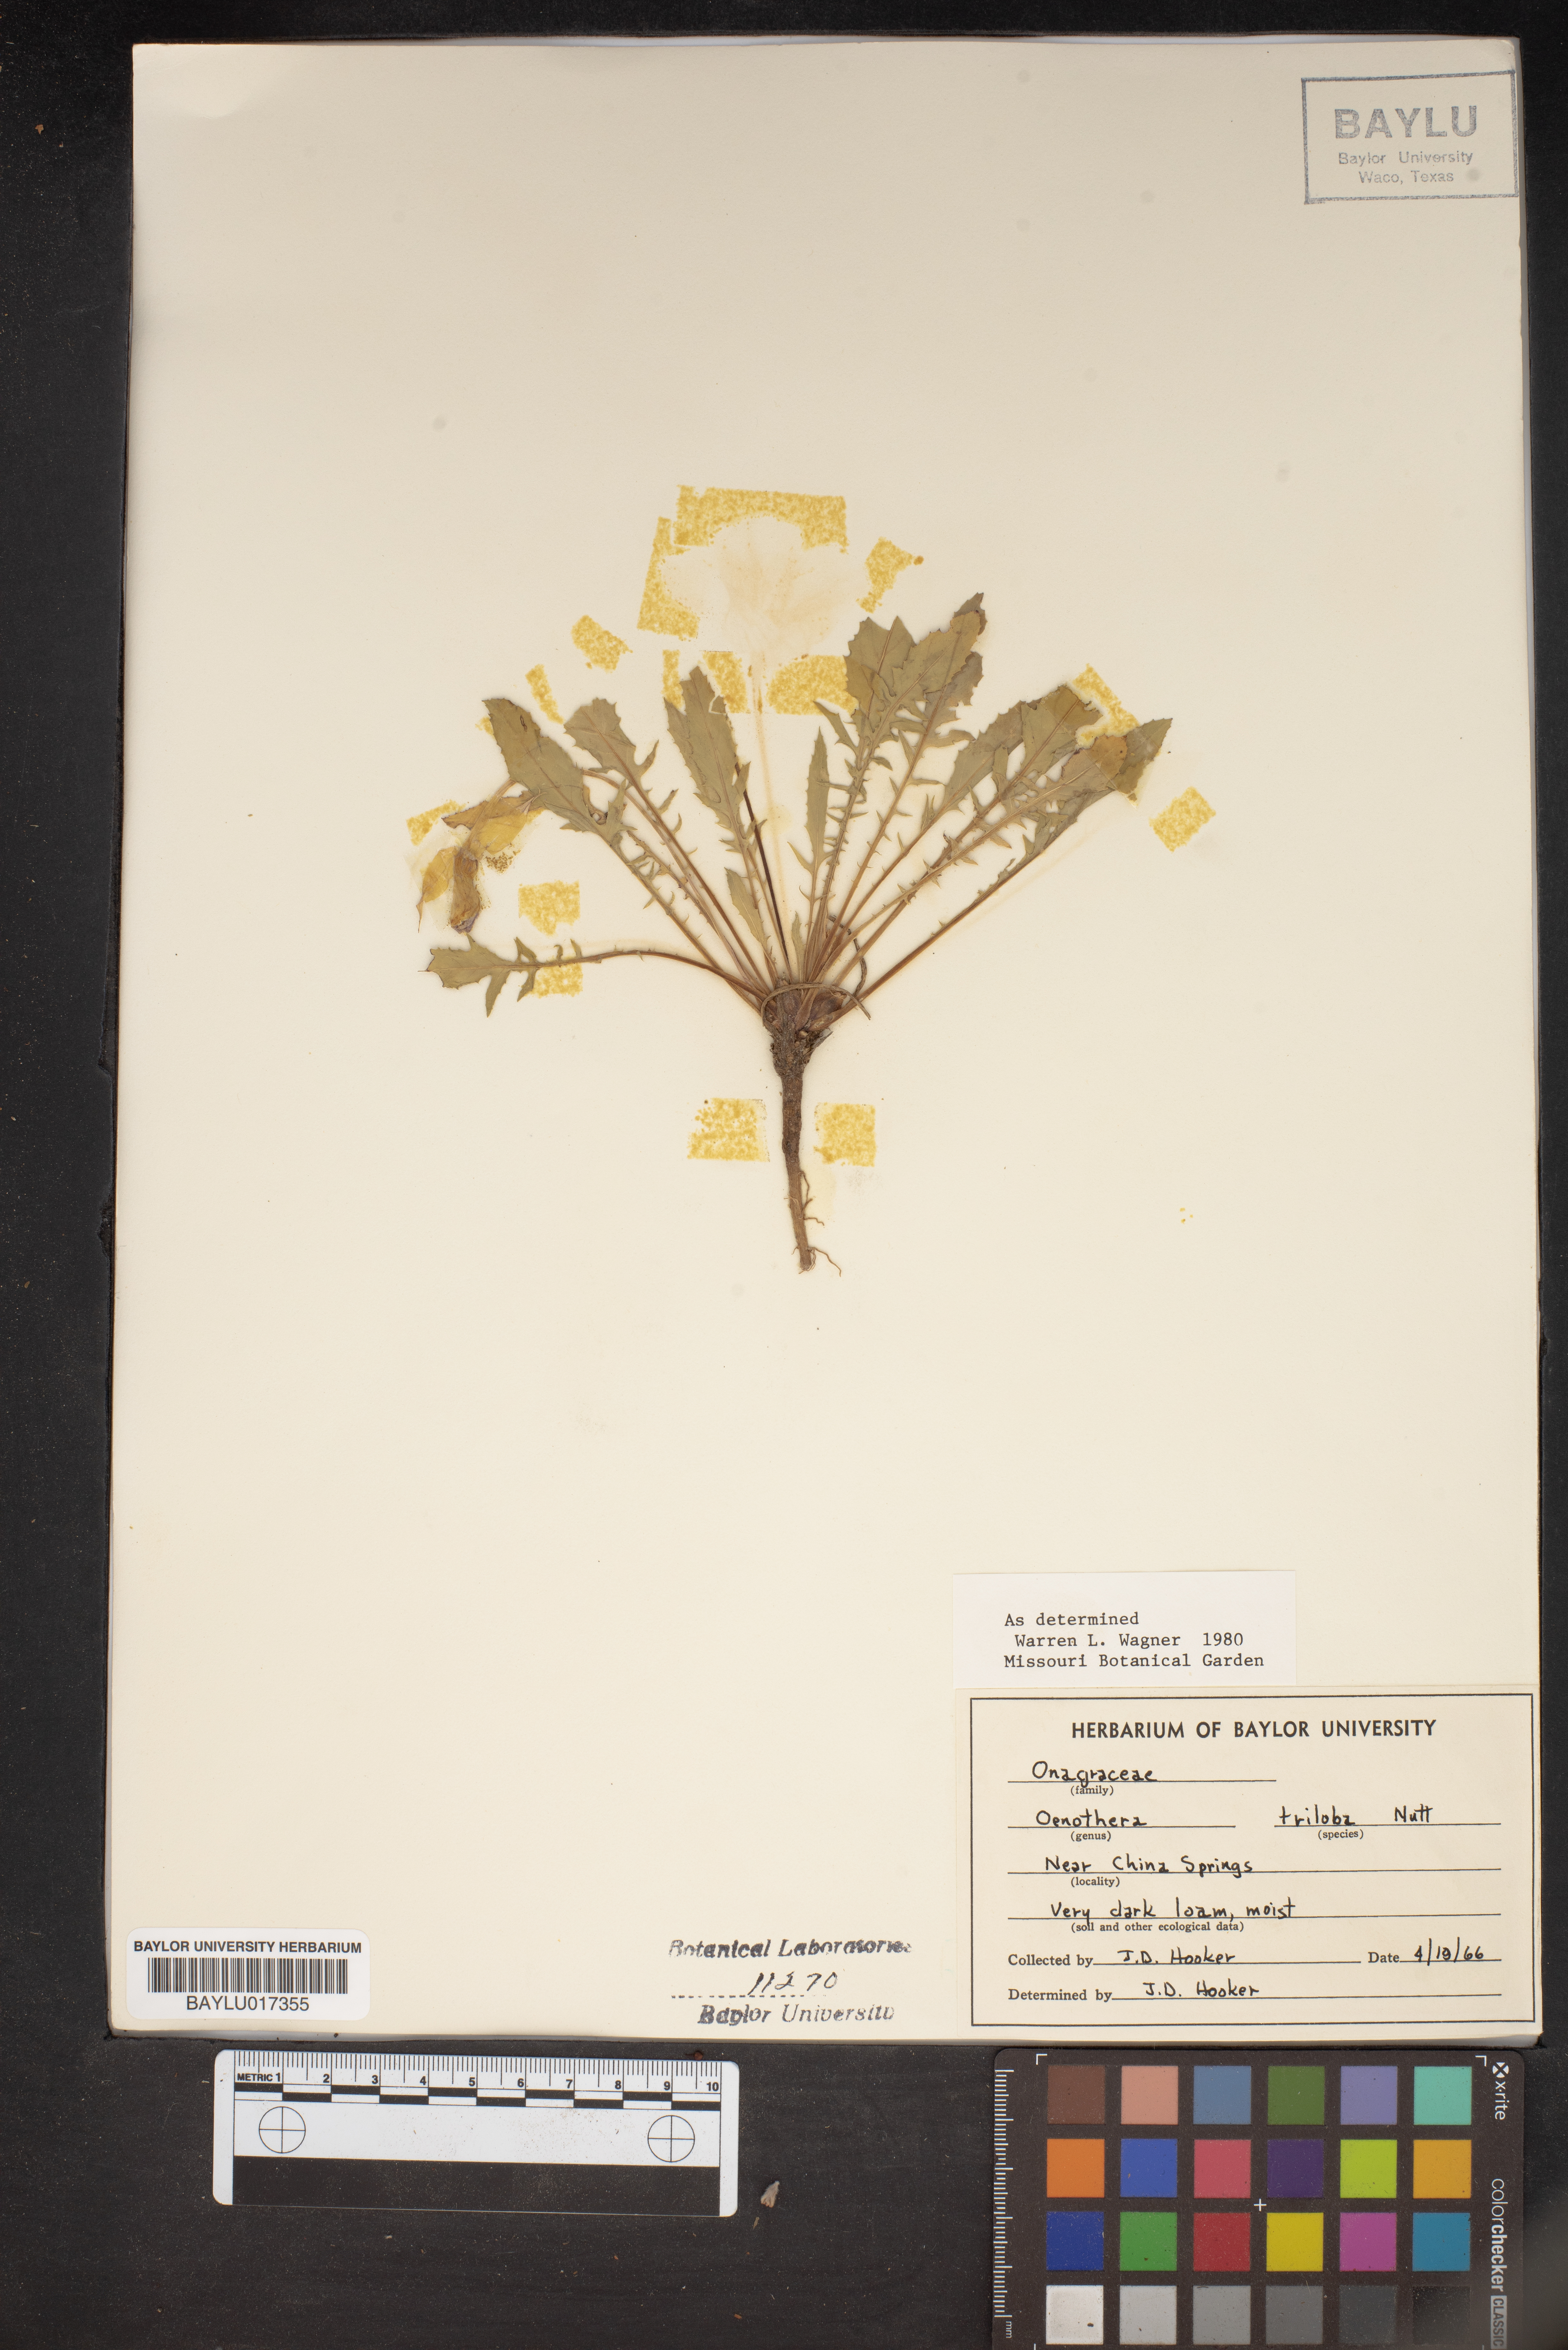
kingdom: Plantae
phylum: Tracheophyta
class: Magnoliopsida
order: Myrtales
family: Onagraceae
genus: Oenothera
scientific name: Oenothera triloba
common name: Sessile evening-primrose
